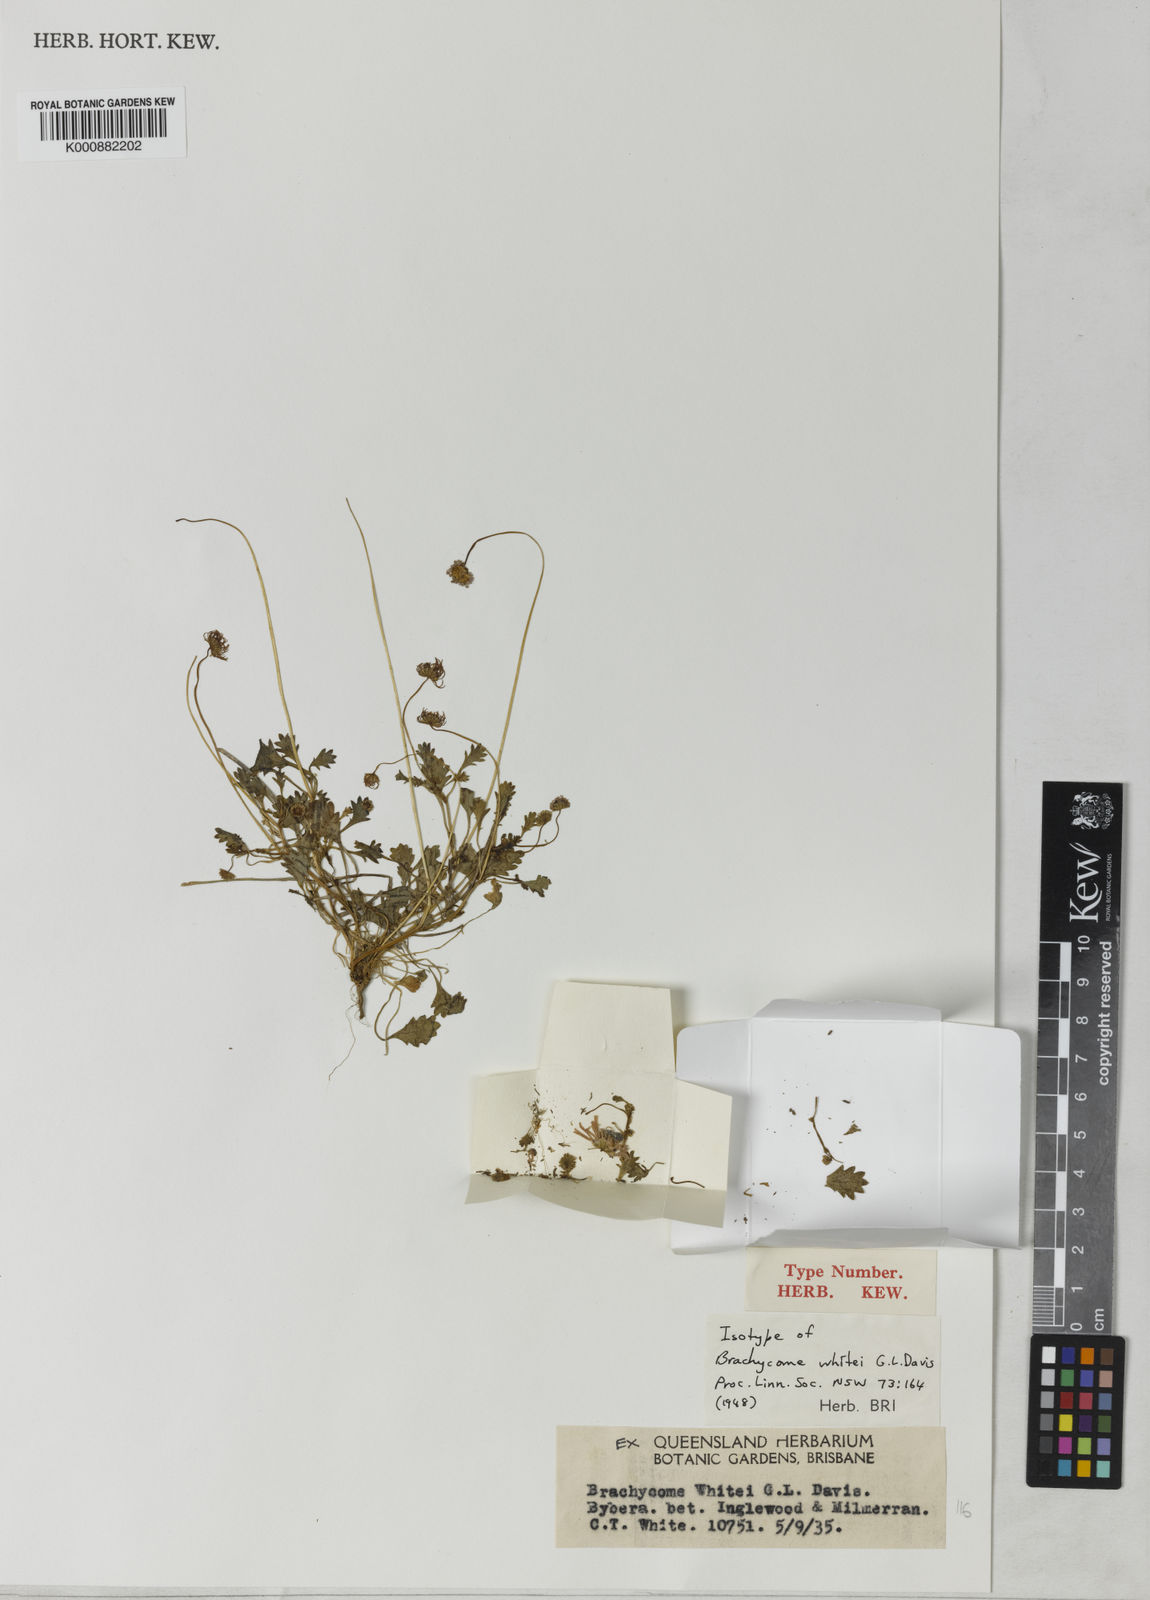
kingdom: Plantae
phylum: Tracheophyta
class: Magnoliopsida
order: Asterales
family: Asteraceae
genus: Brachyscome
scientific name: Brachyscome whitei
